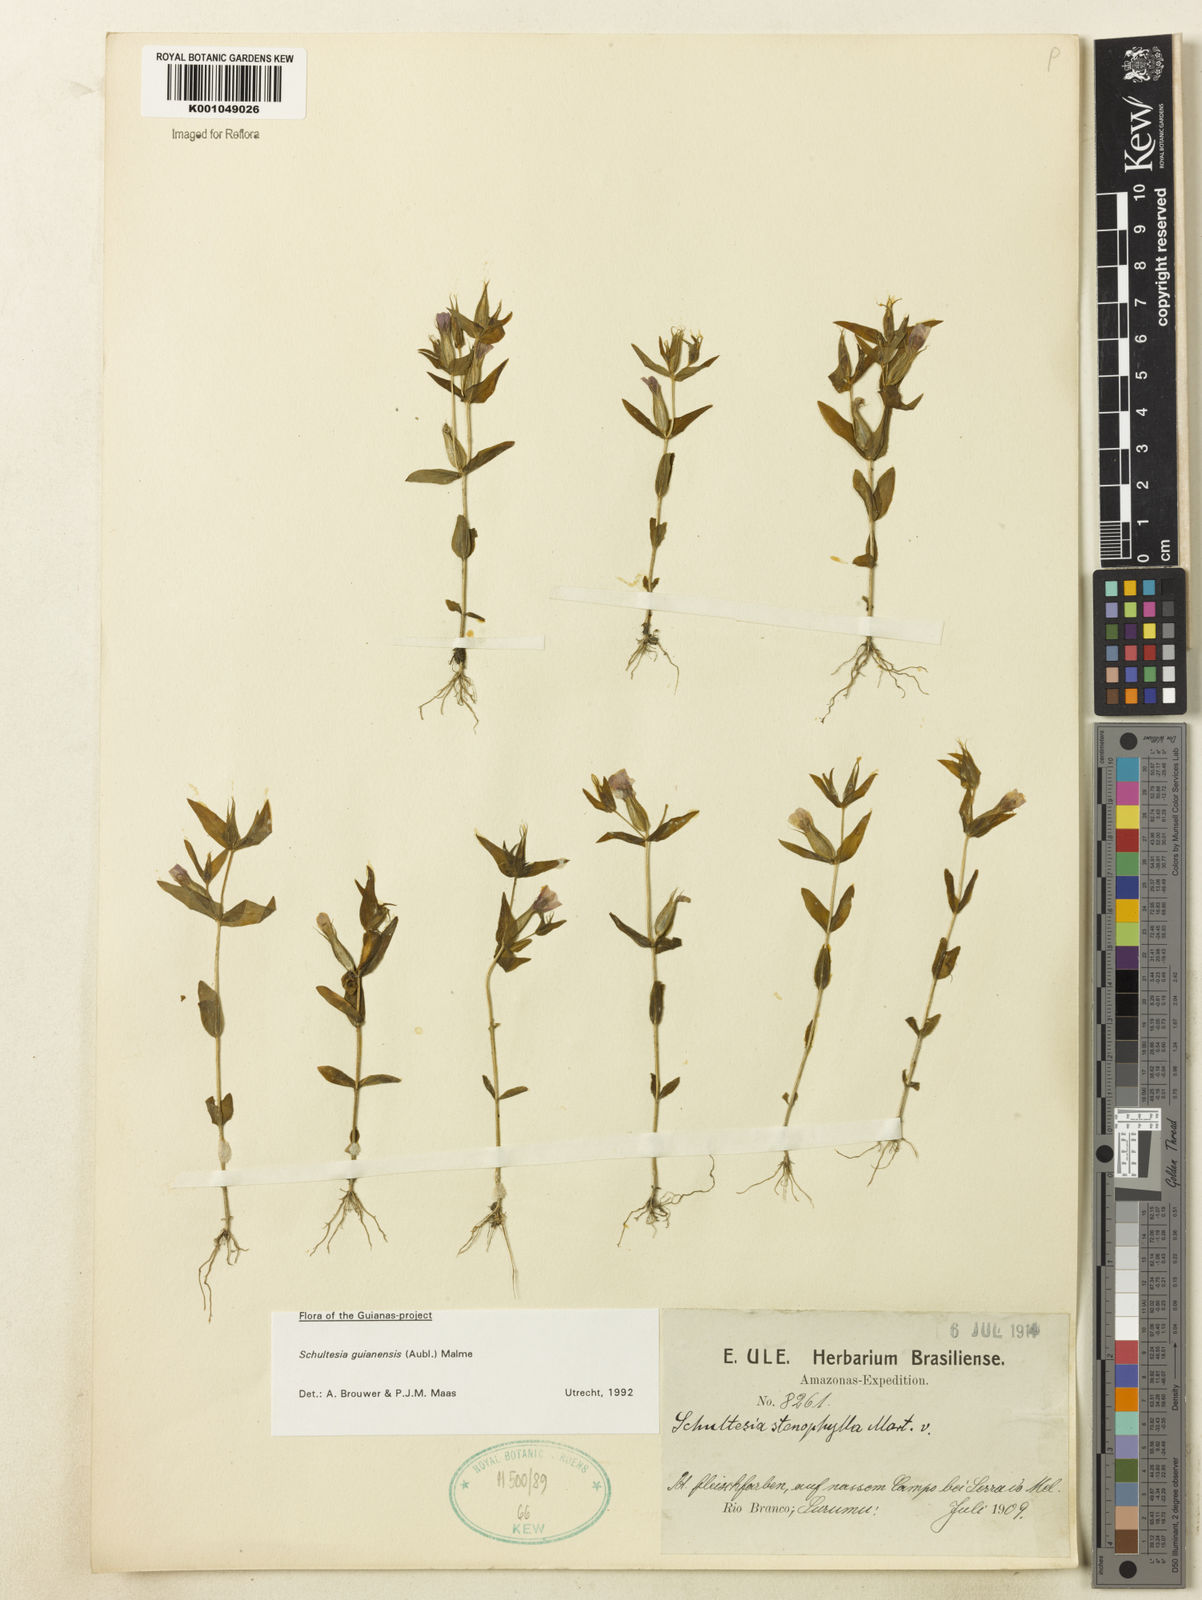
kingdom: Plantae
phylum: Tracheophyta
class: Magnoliopsida
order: Gentianales
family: Gentianaceae
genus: Schultesia
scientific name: Schultesia guianensis
